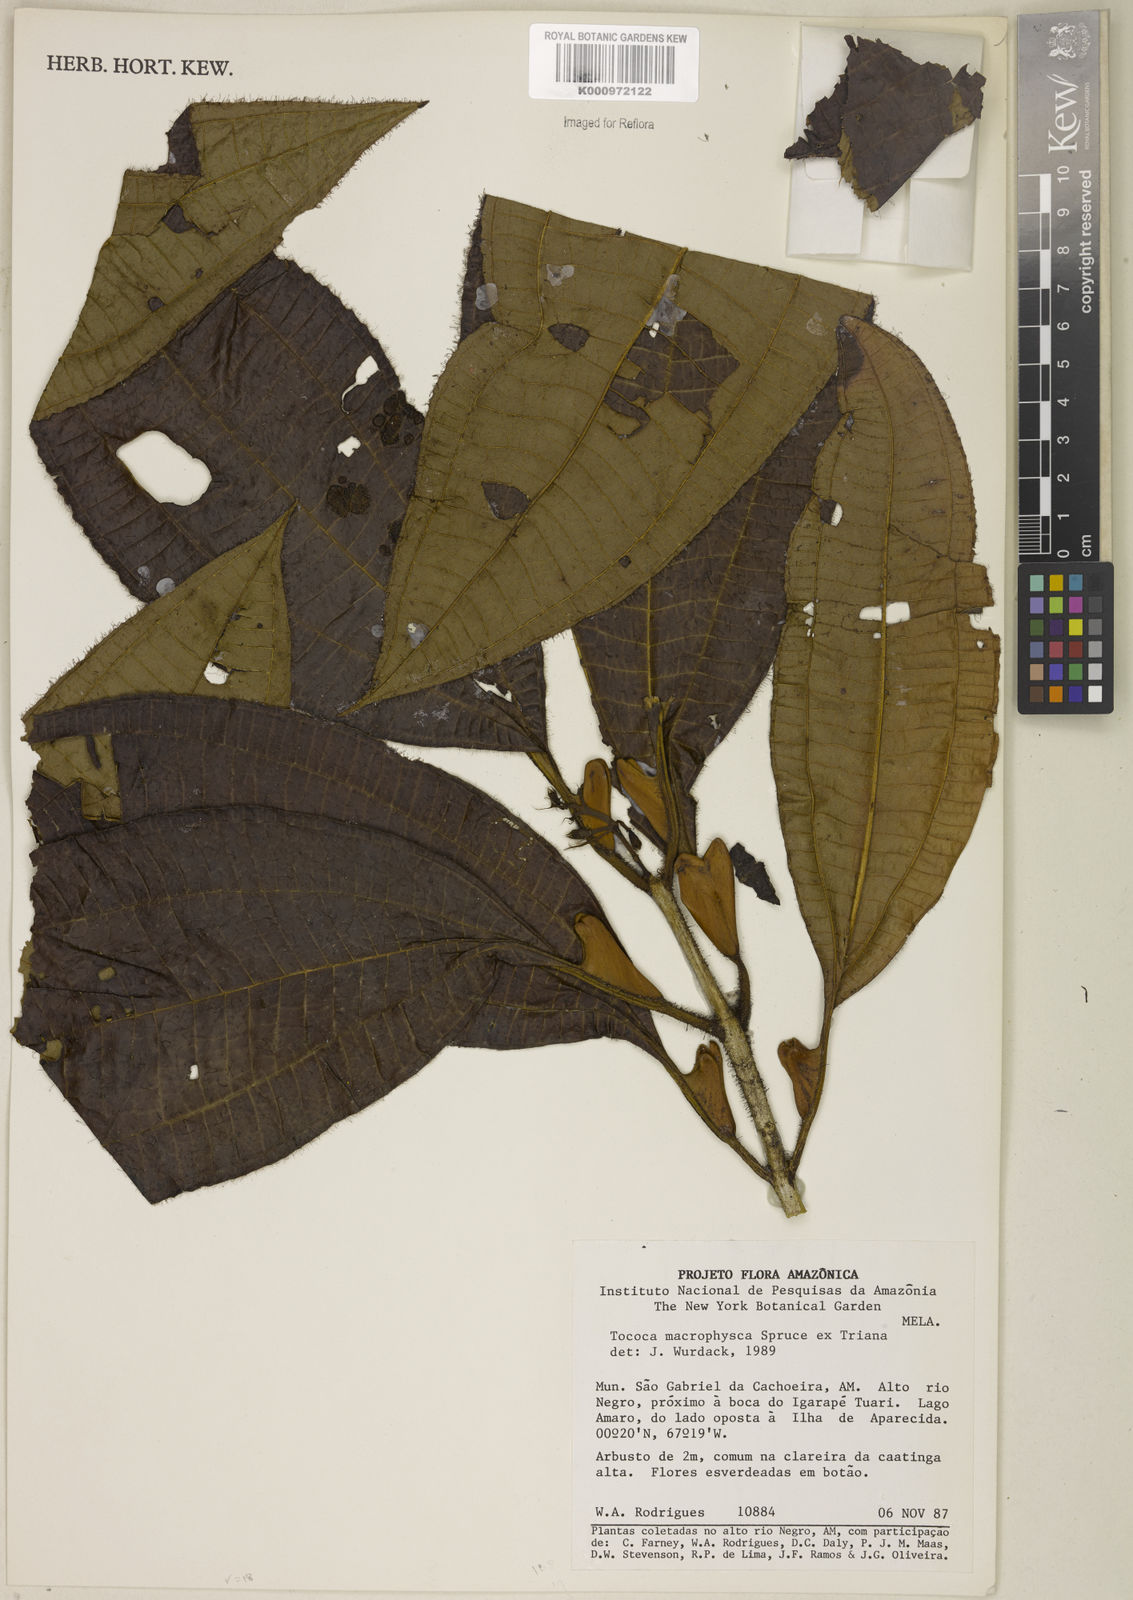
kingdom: Plantae
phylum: Tracheophyta
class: Magnoliopsida
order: Myrtales
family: Melastomataceae
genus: Miconia
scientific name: Miconia macrophysca
